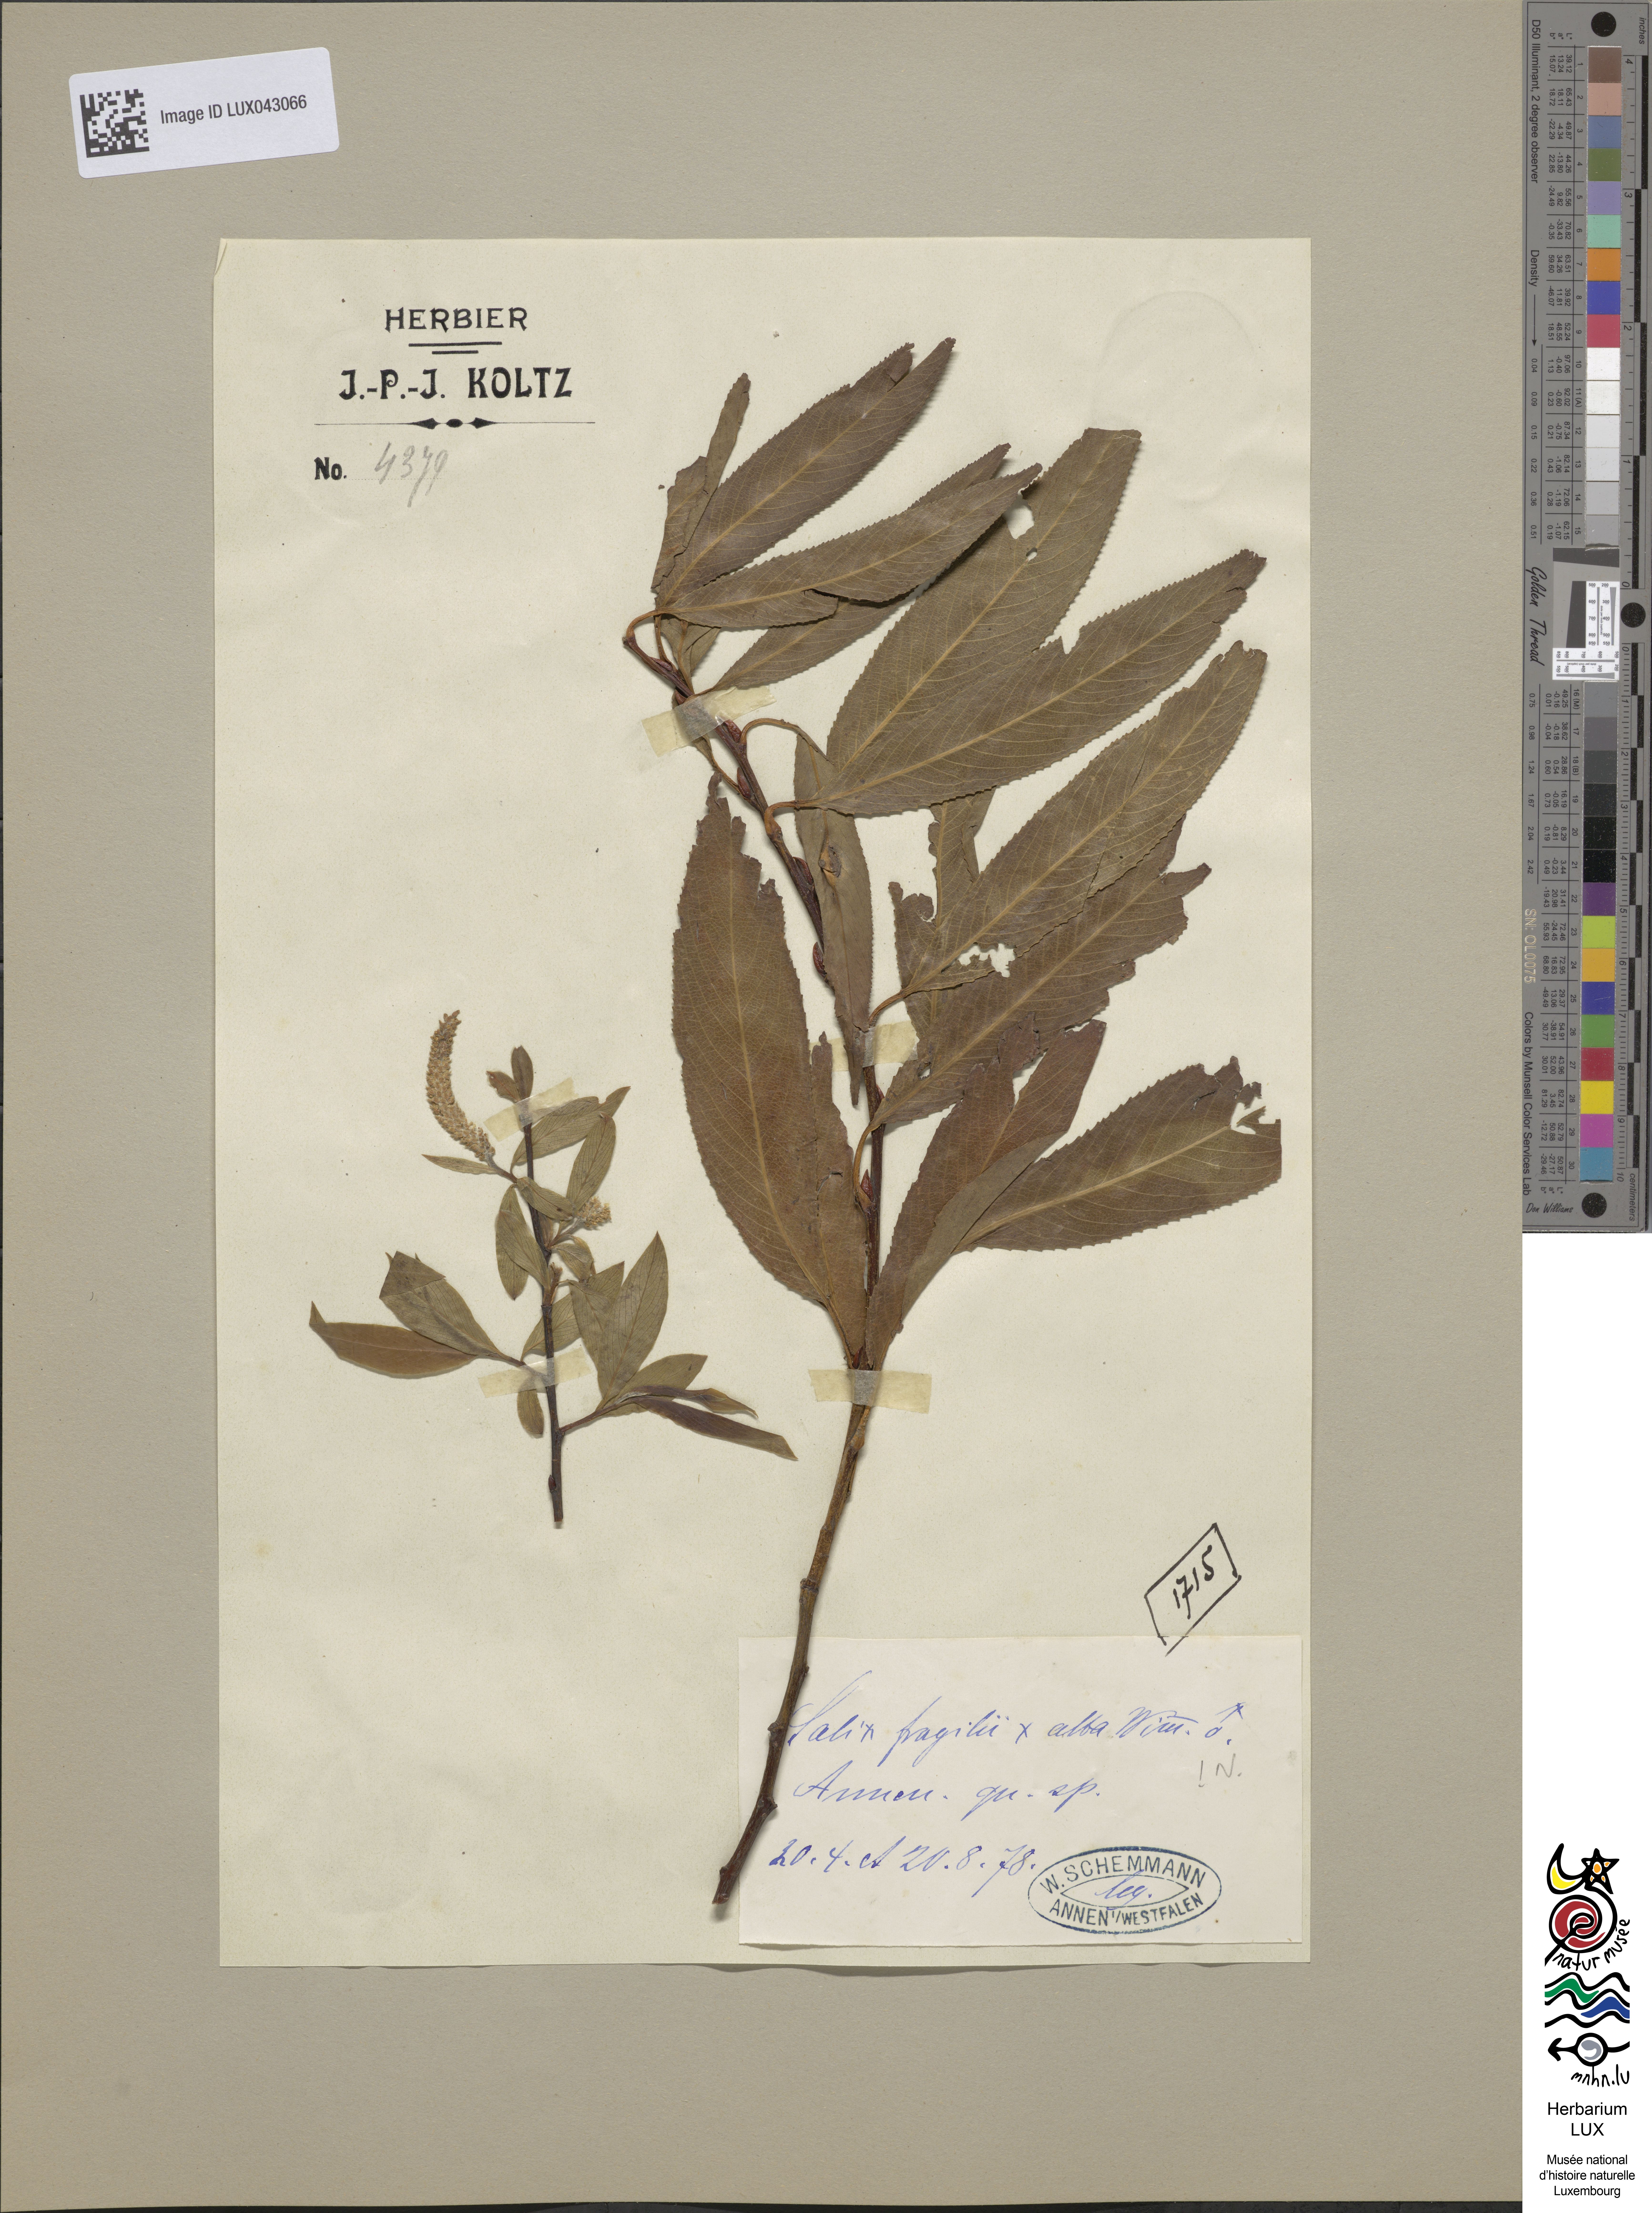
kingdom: Plantae
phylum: Tracheophyta
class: Magnoliopsida
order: Malpighiales
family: Salicaceae
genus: Salix
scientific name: Salix fragilis
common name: Crack willow
